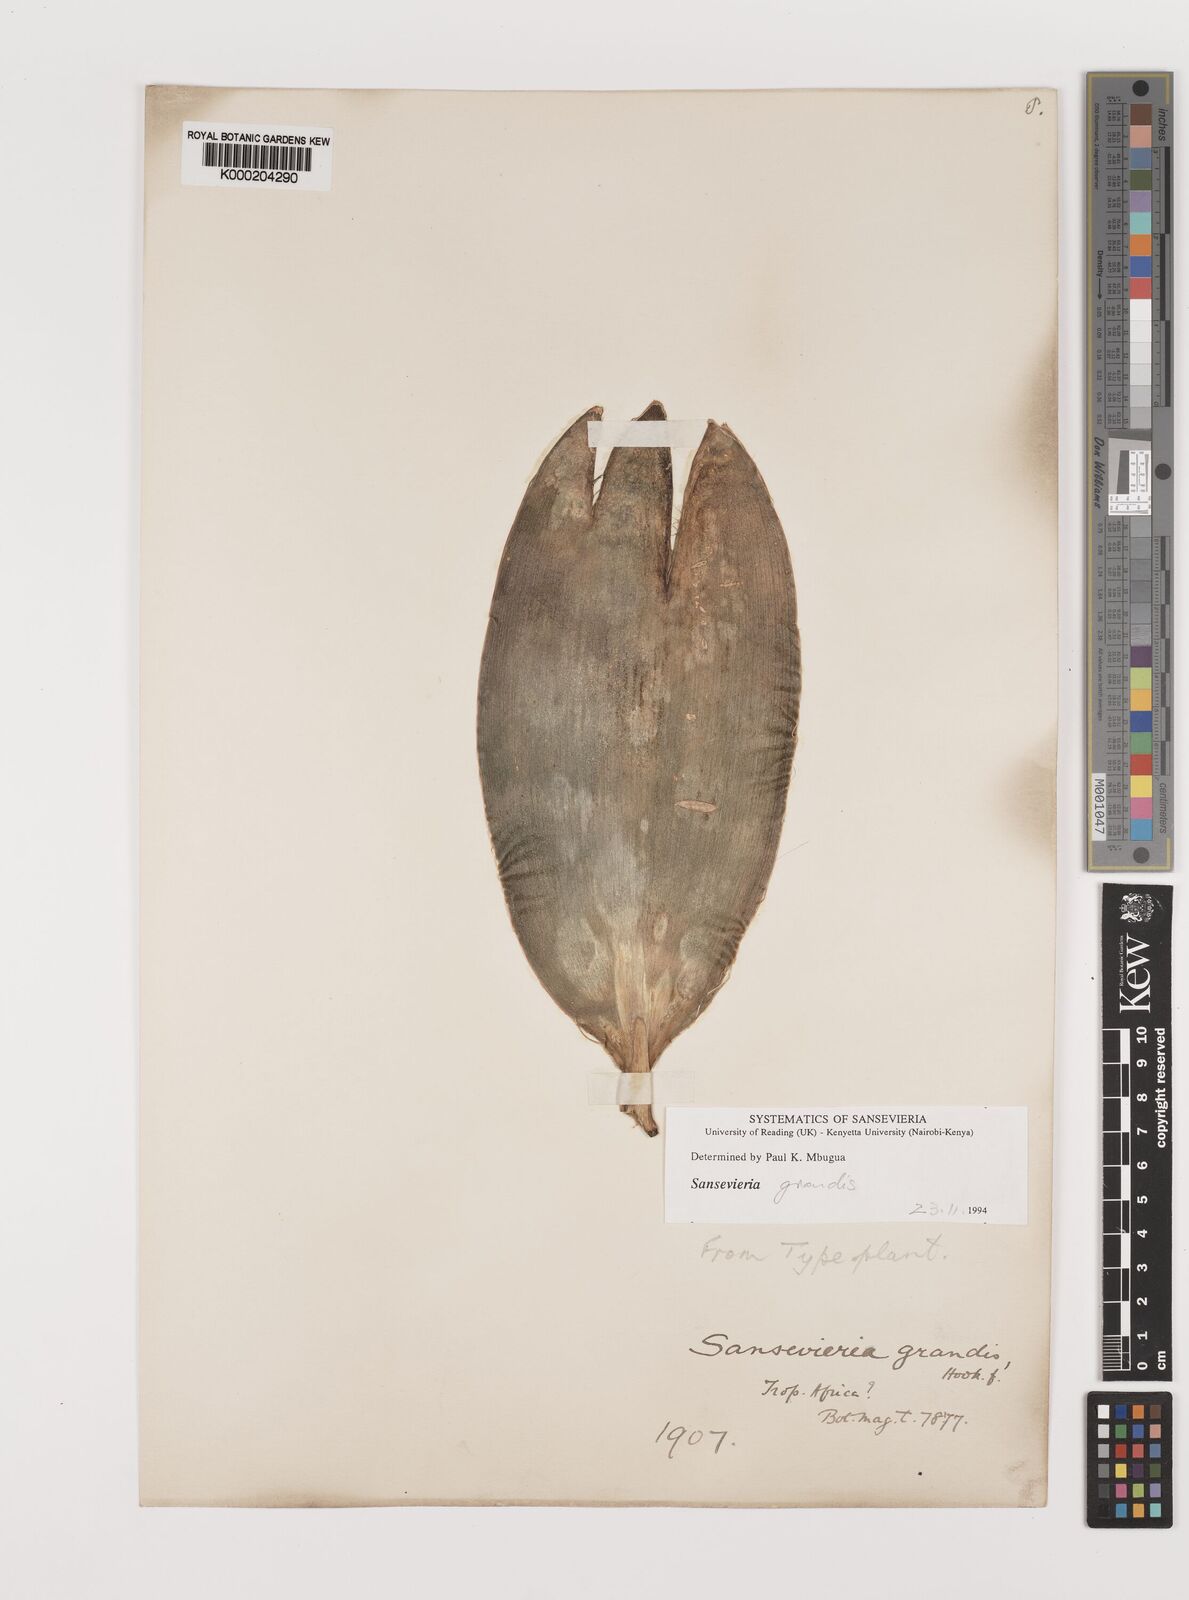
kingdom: Plantae
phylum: Tracheophyta
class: Liliopsida
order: Asparagales
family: Asparagaceae
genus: Dracaena
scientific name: Dracaena hyacinthoides
